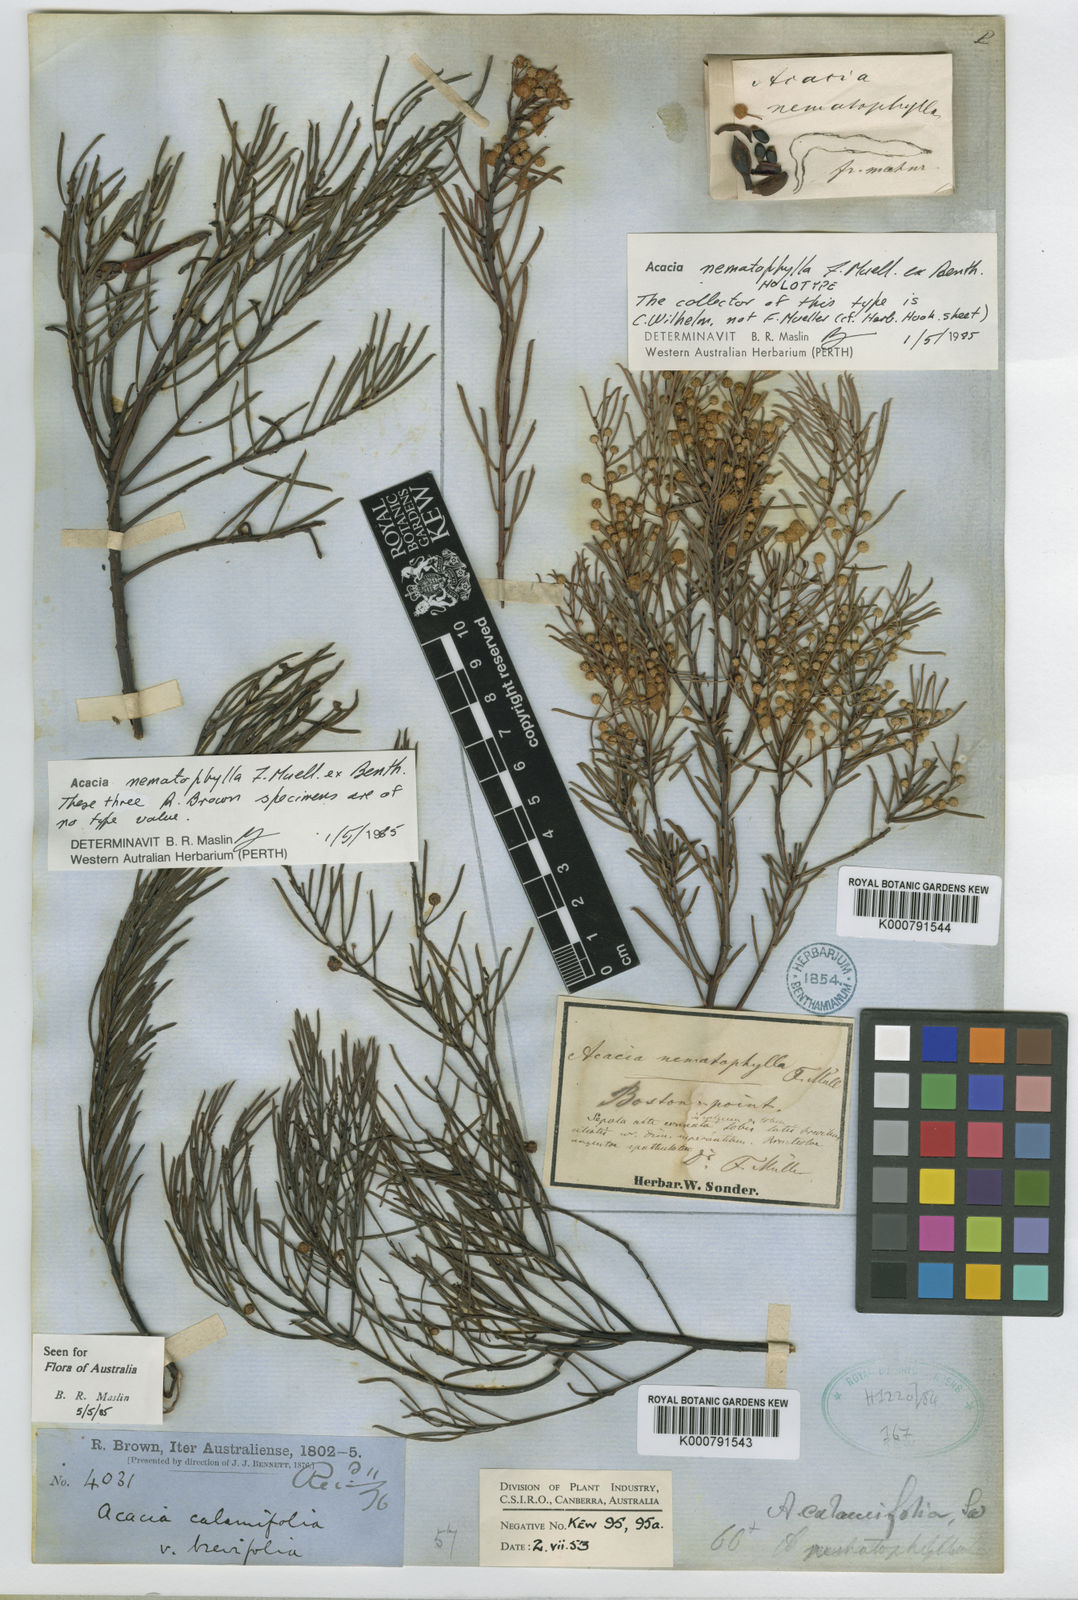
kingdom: Plantae
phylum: Tracheophyta
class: Magnoliopsida
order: Fabales
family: Fabaceae
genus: Acacia
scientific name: Acacia calamifolia
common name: Broom wattle
